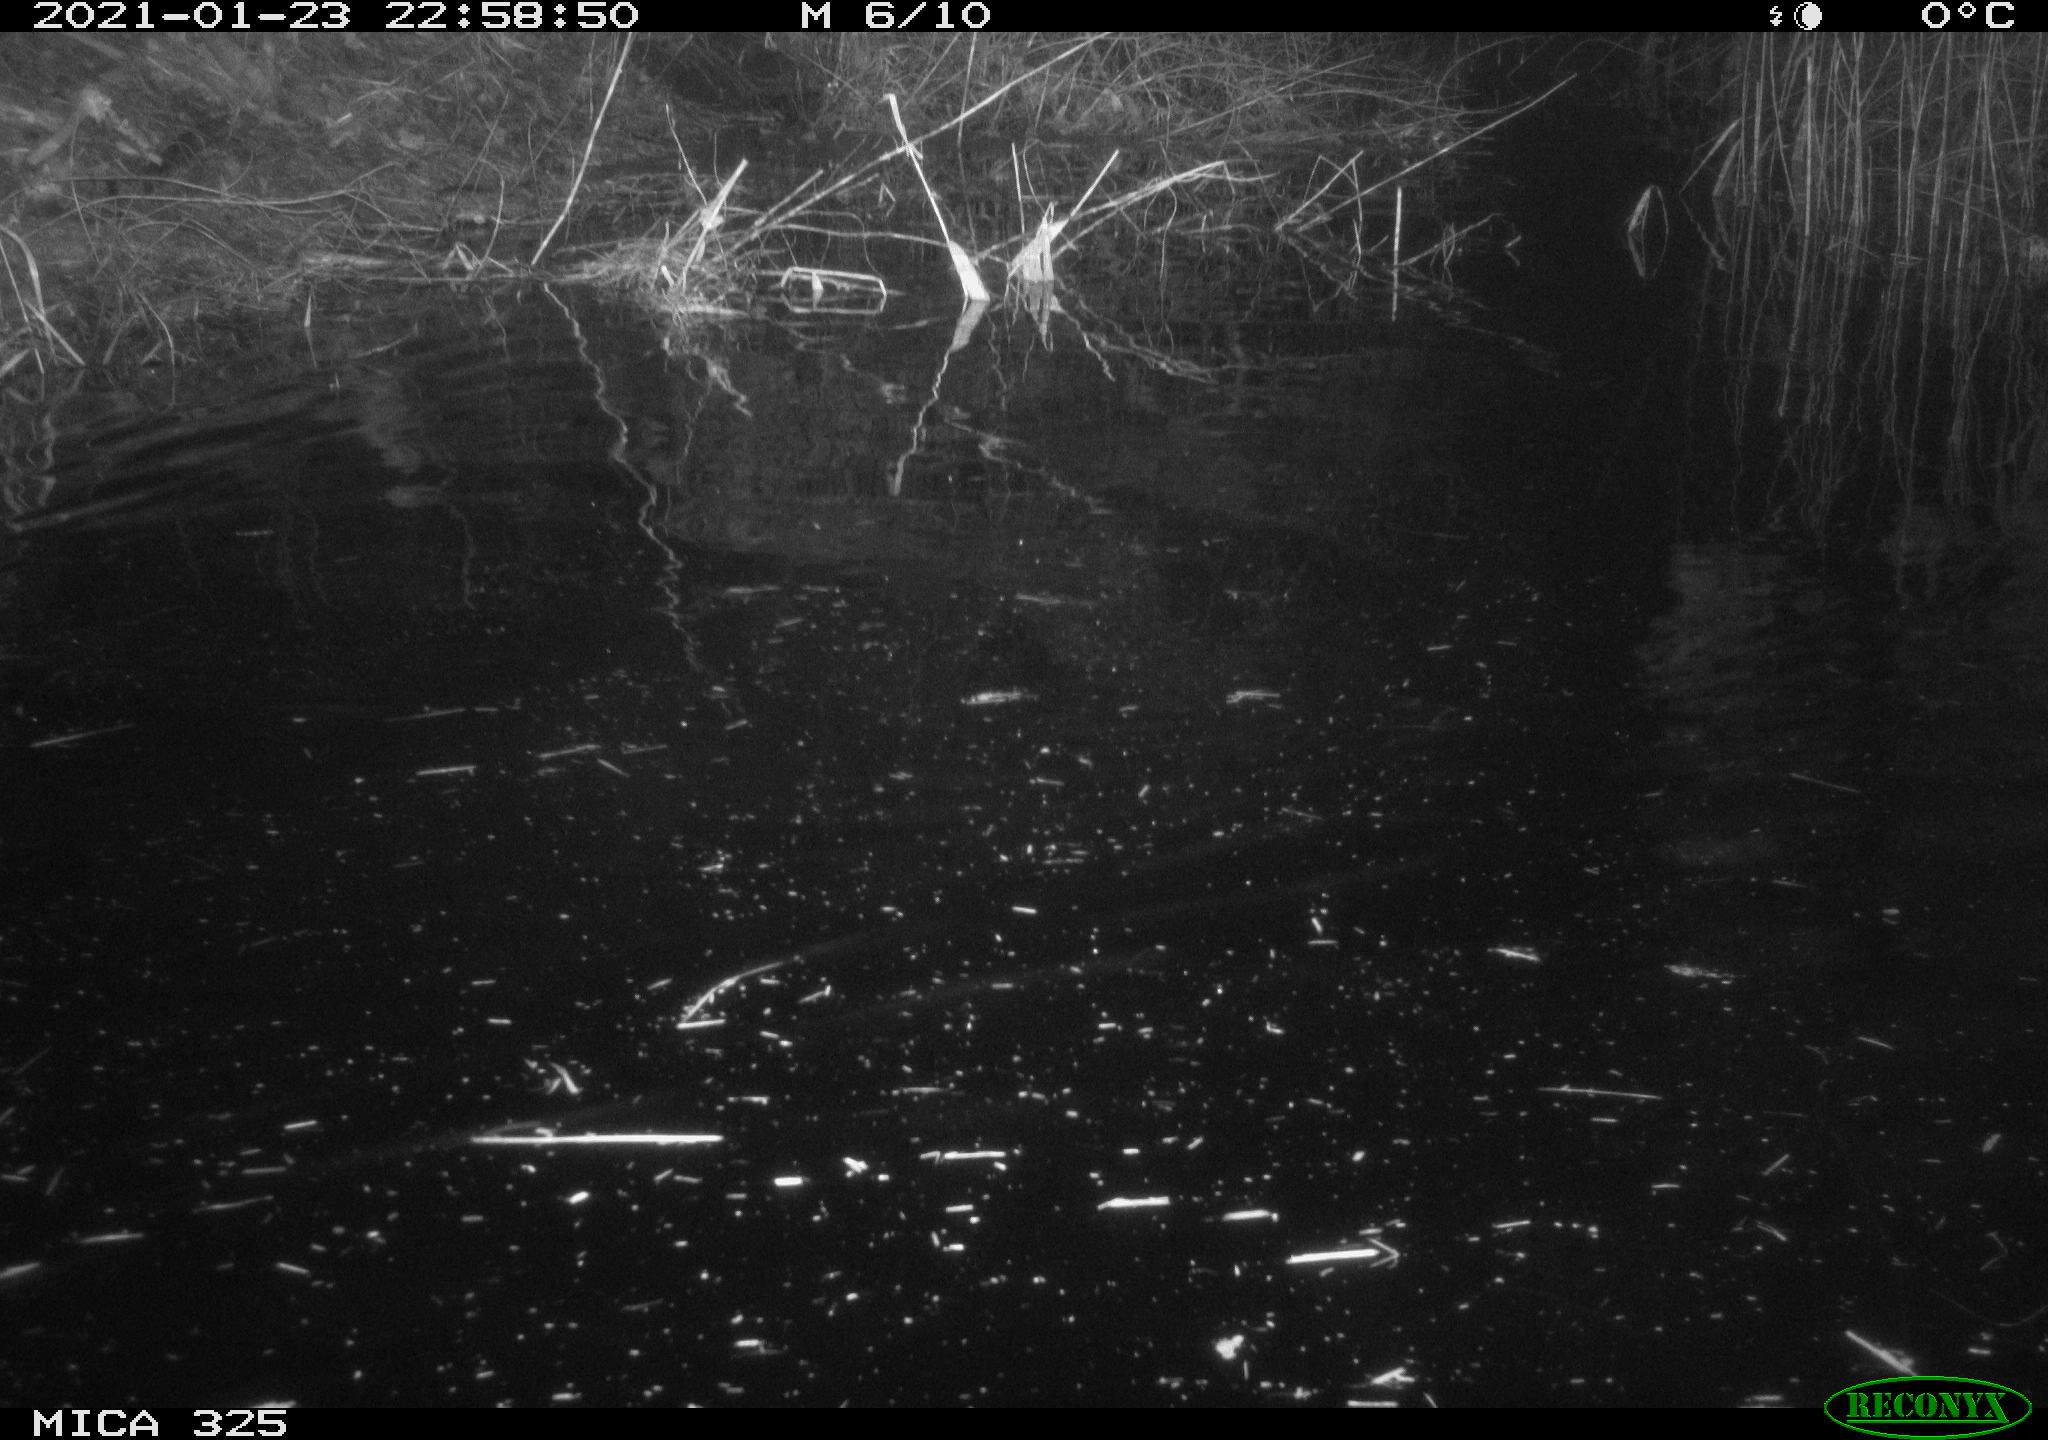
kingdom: Animalia
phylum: Chordata
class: Mammalia
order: Rodentia
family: Myocastoridae
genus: Myocastor
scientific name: Myocastor coypus
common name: Coypu
